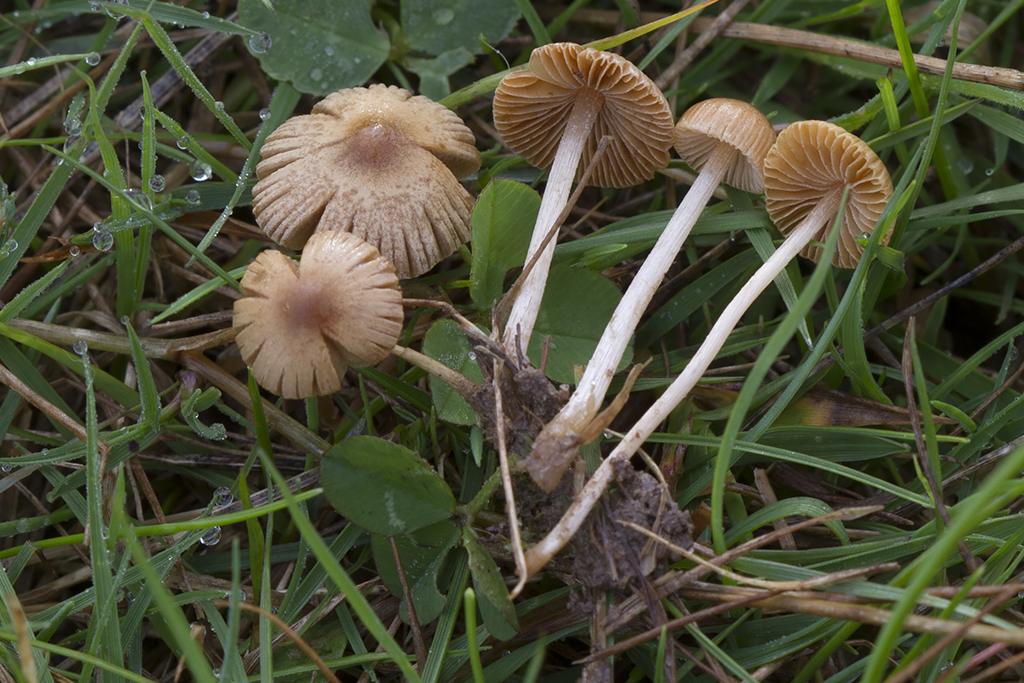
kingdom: Fungi
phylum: Basidiomycota
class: Agaricomycetes
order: Agaricales
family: Bolbitiaceae
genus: Pholiotina
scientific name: Pholiotina sulcata
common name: plisseret dansehat
